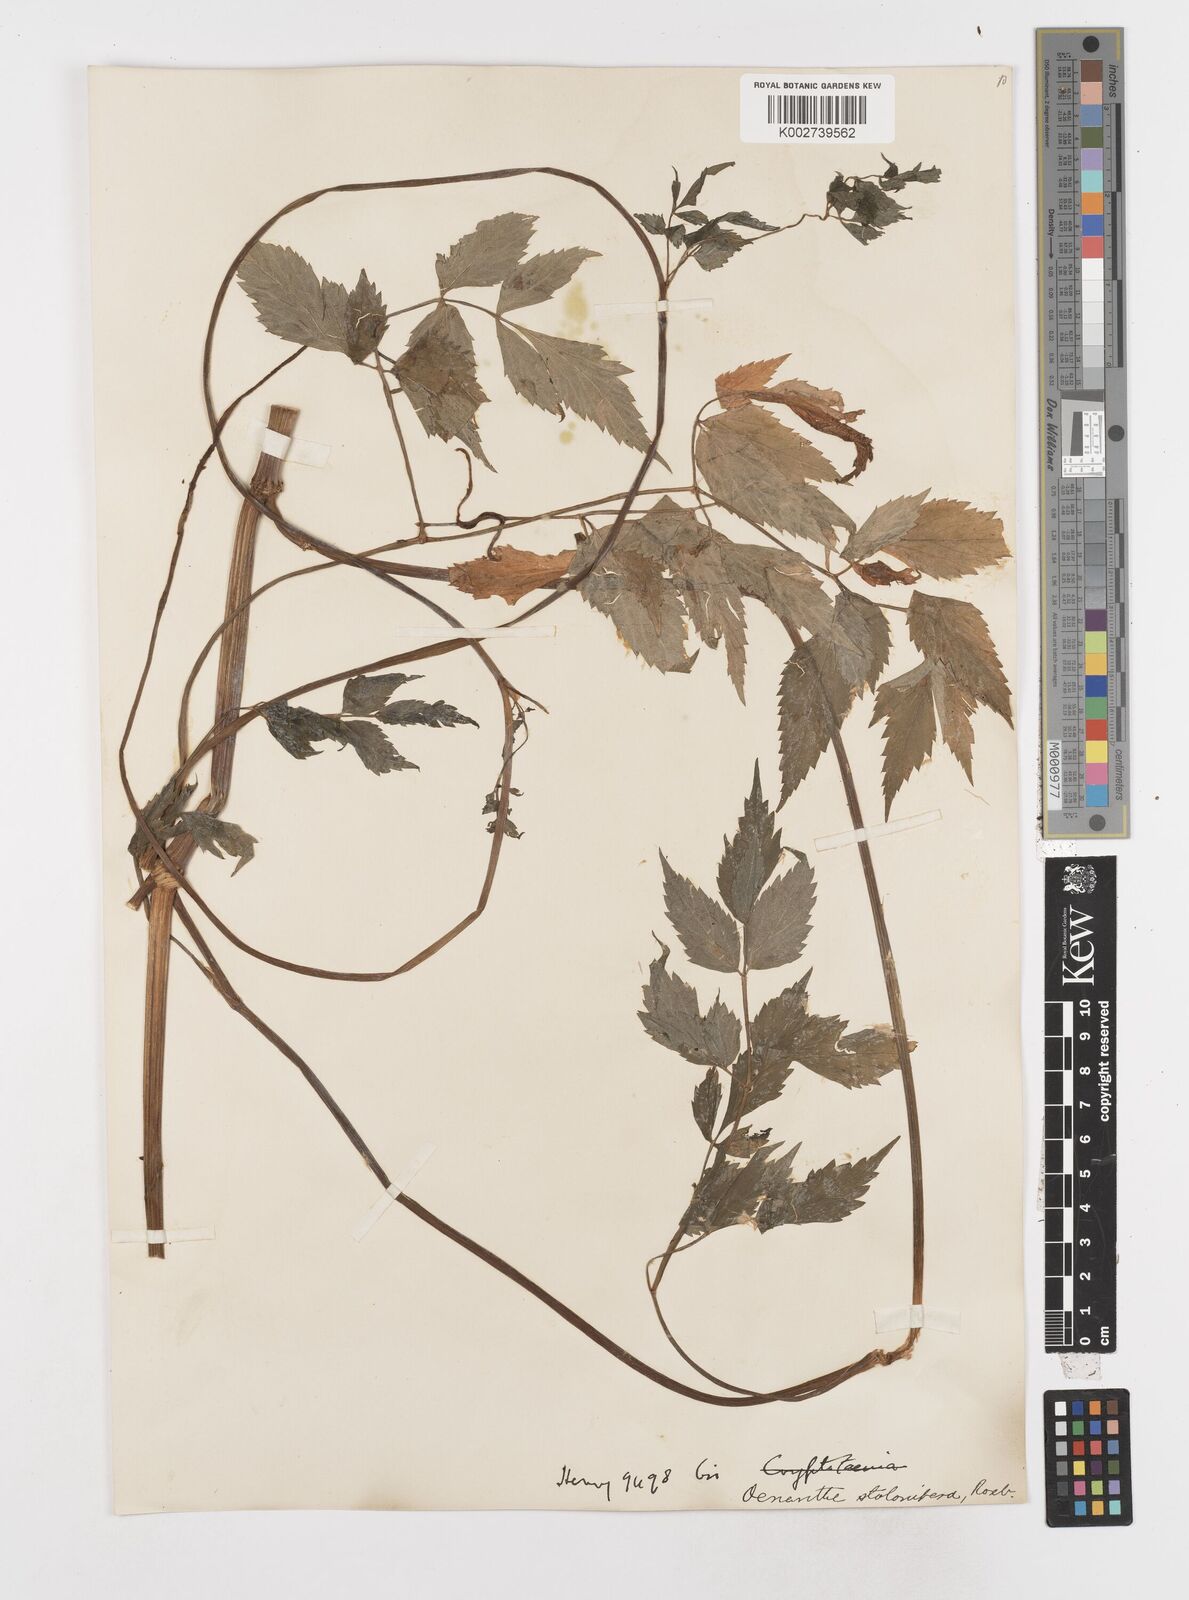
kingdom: Plantae
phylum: Tracheophyta
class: Magnoliopsida
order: Apiales
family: Apiaceae
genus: Oenanthe
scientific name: Oenanthe javanica
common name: Java water-dropwort
